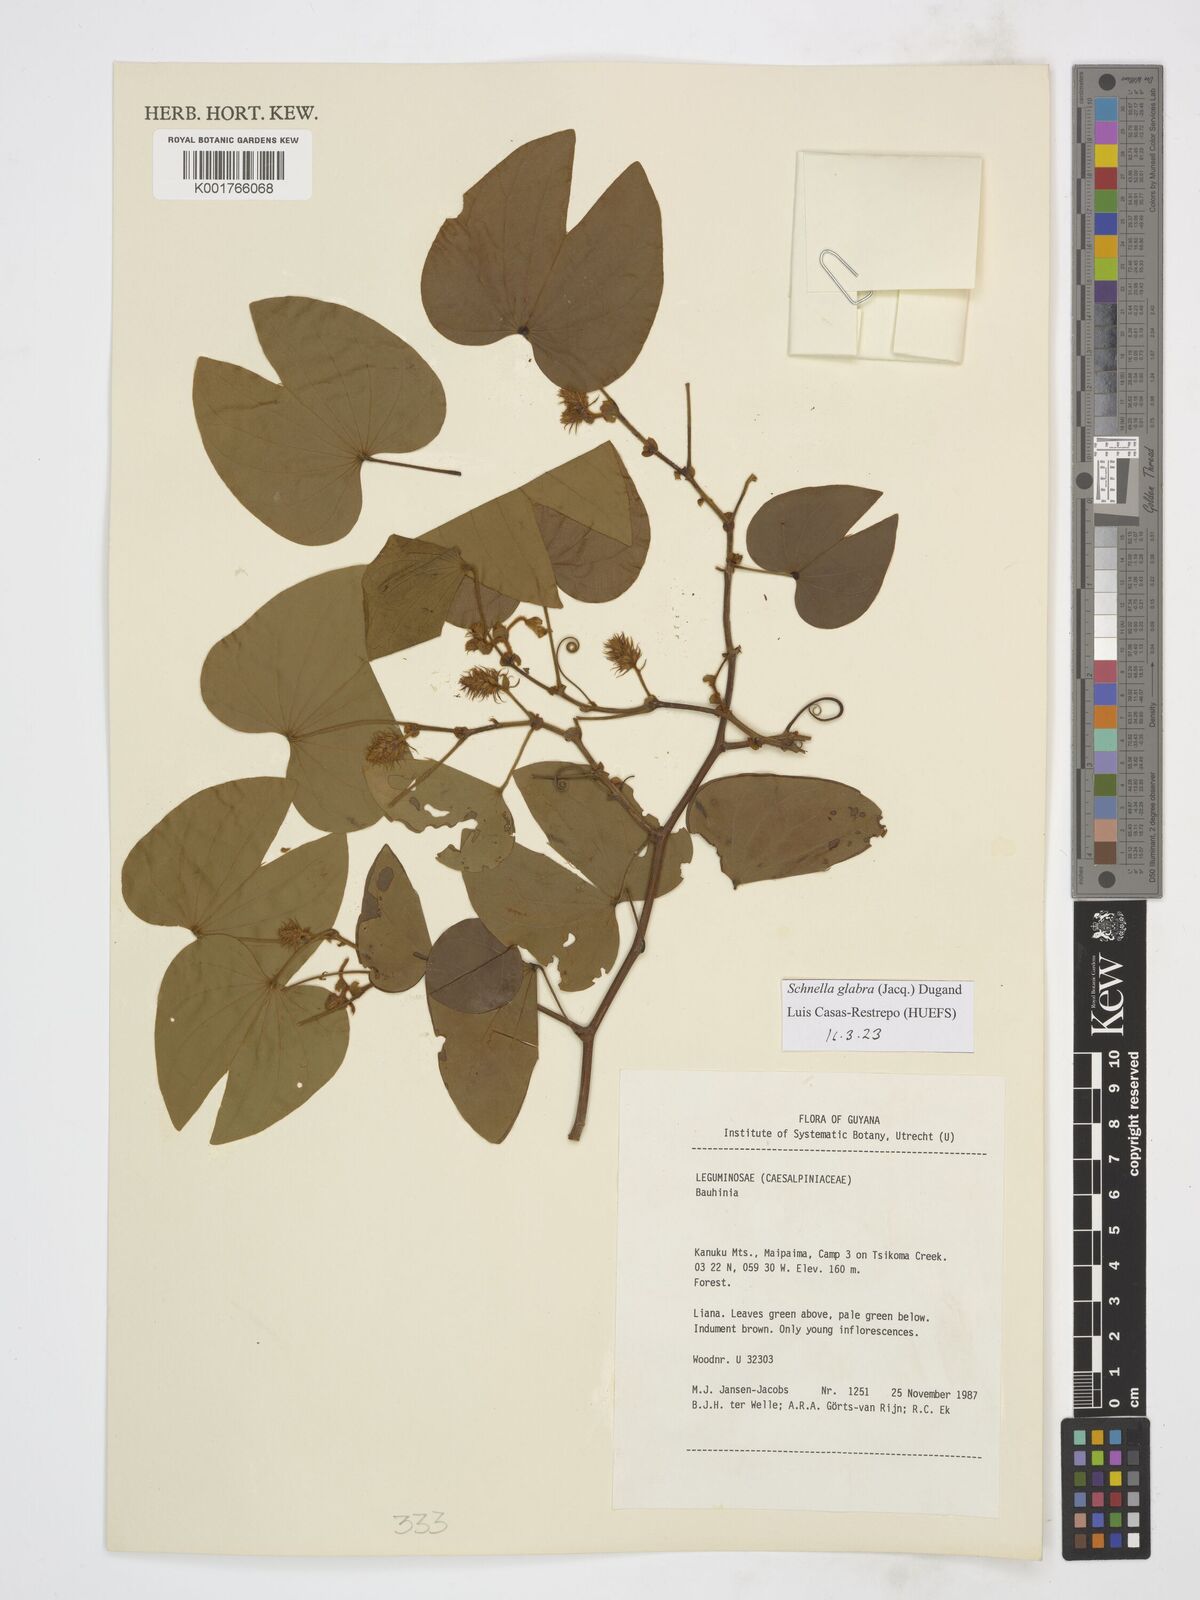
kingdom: Plantae
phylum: Tracheophyta
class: Magnoliopsida
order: Fabales
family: Fabaceae
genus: Schnella
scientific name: Schnella glabra
